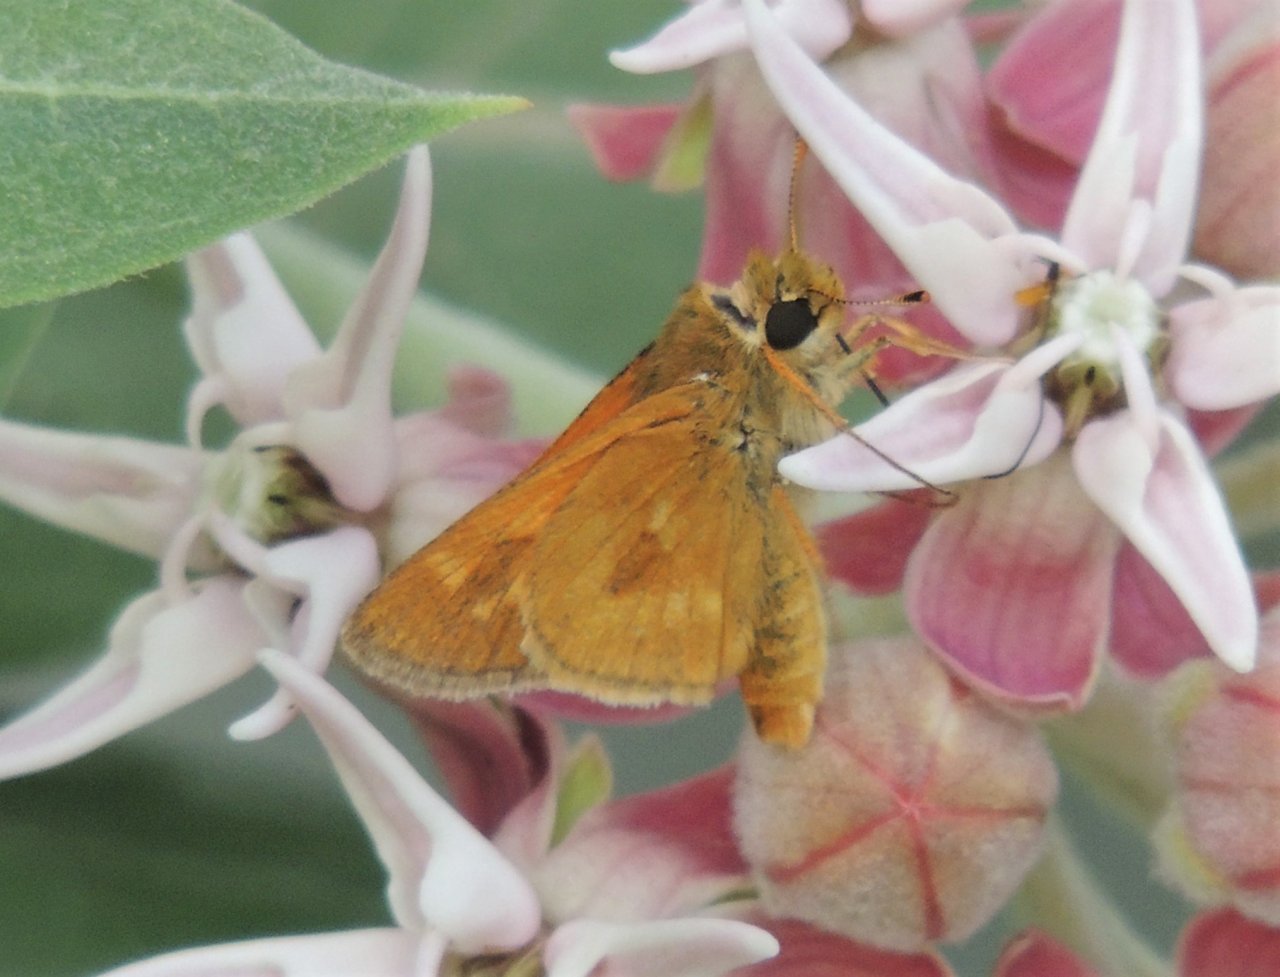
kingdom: Animalia
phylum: Arthropoda
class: Insecta
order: Lepidoptera
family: Hesperiidae
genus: Polites
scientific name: Polites
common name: Long Dash Skipper
